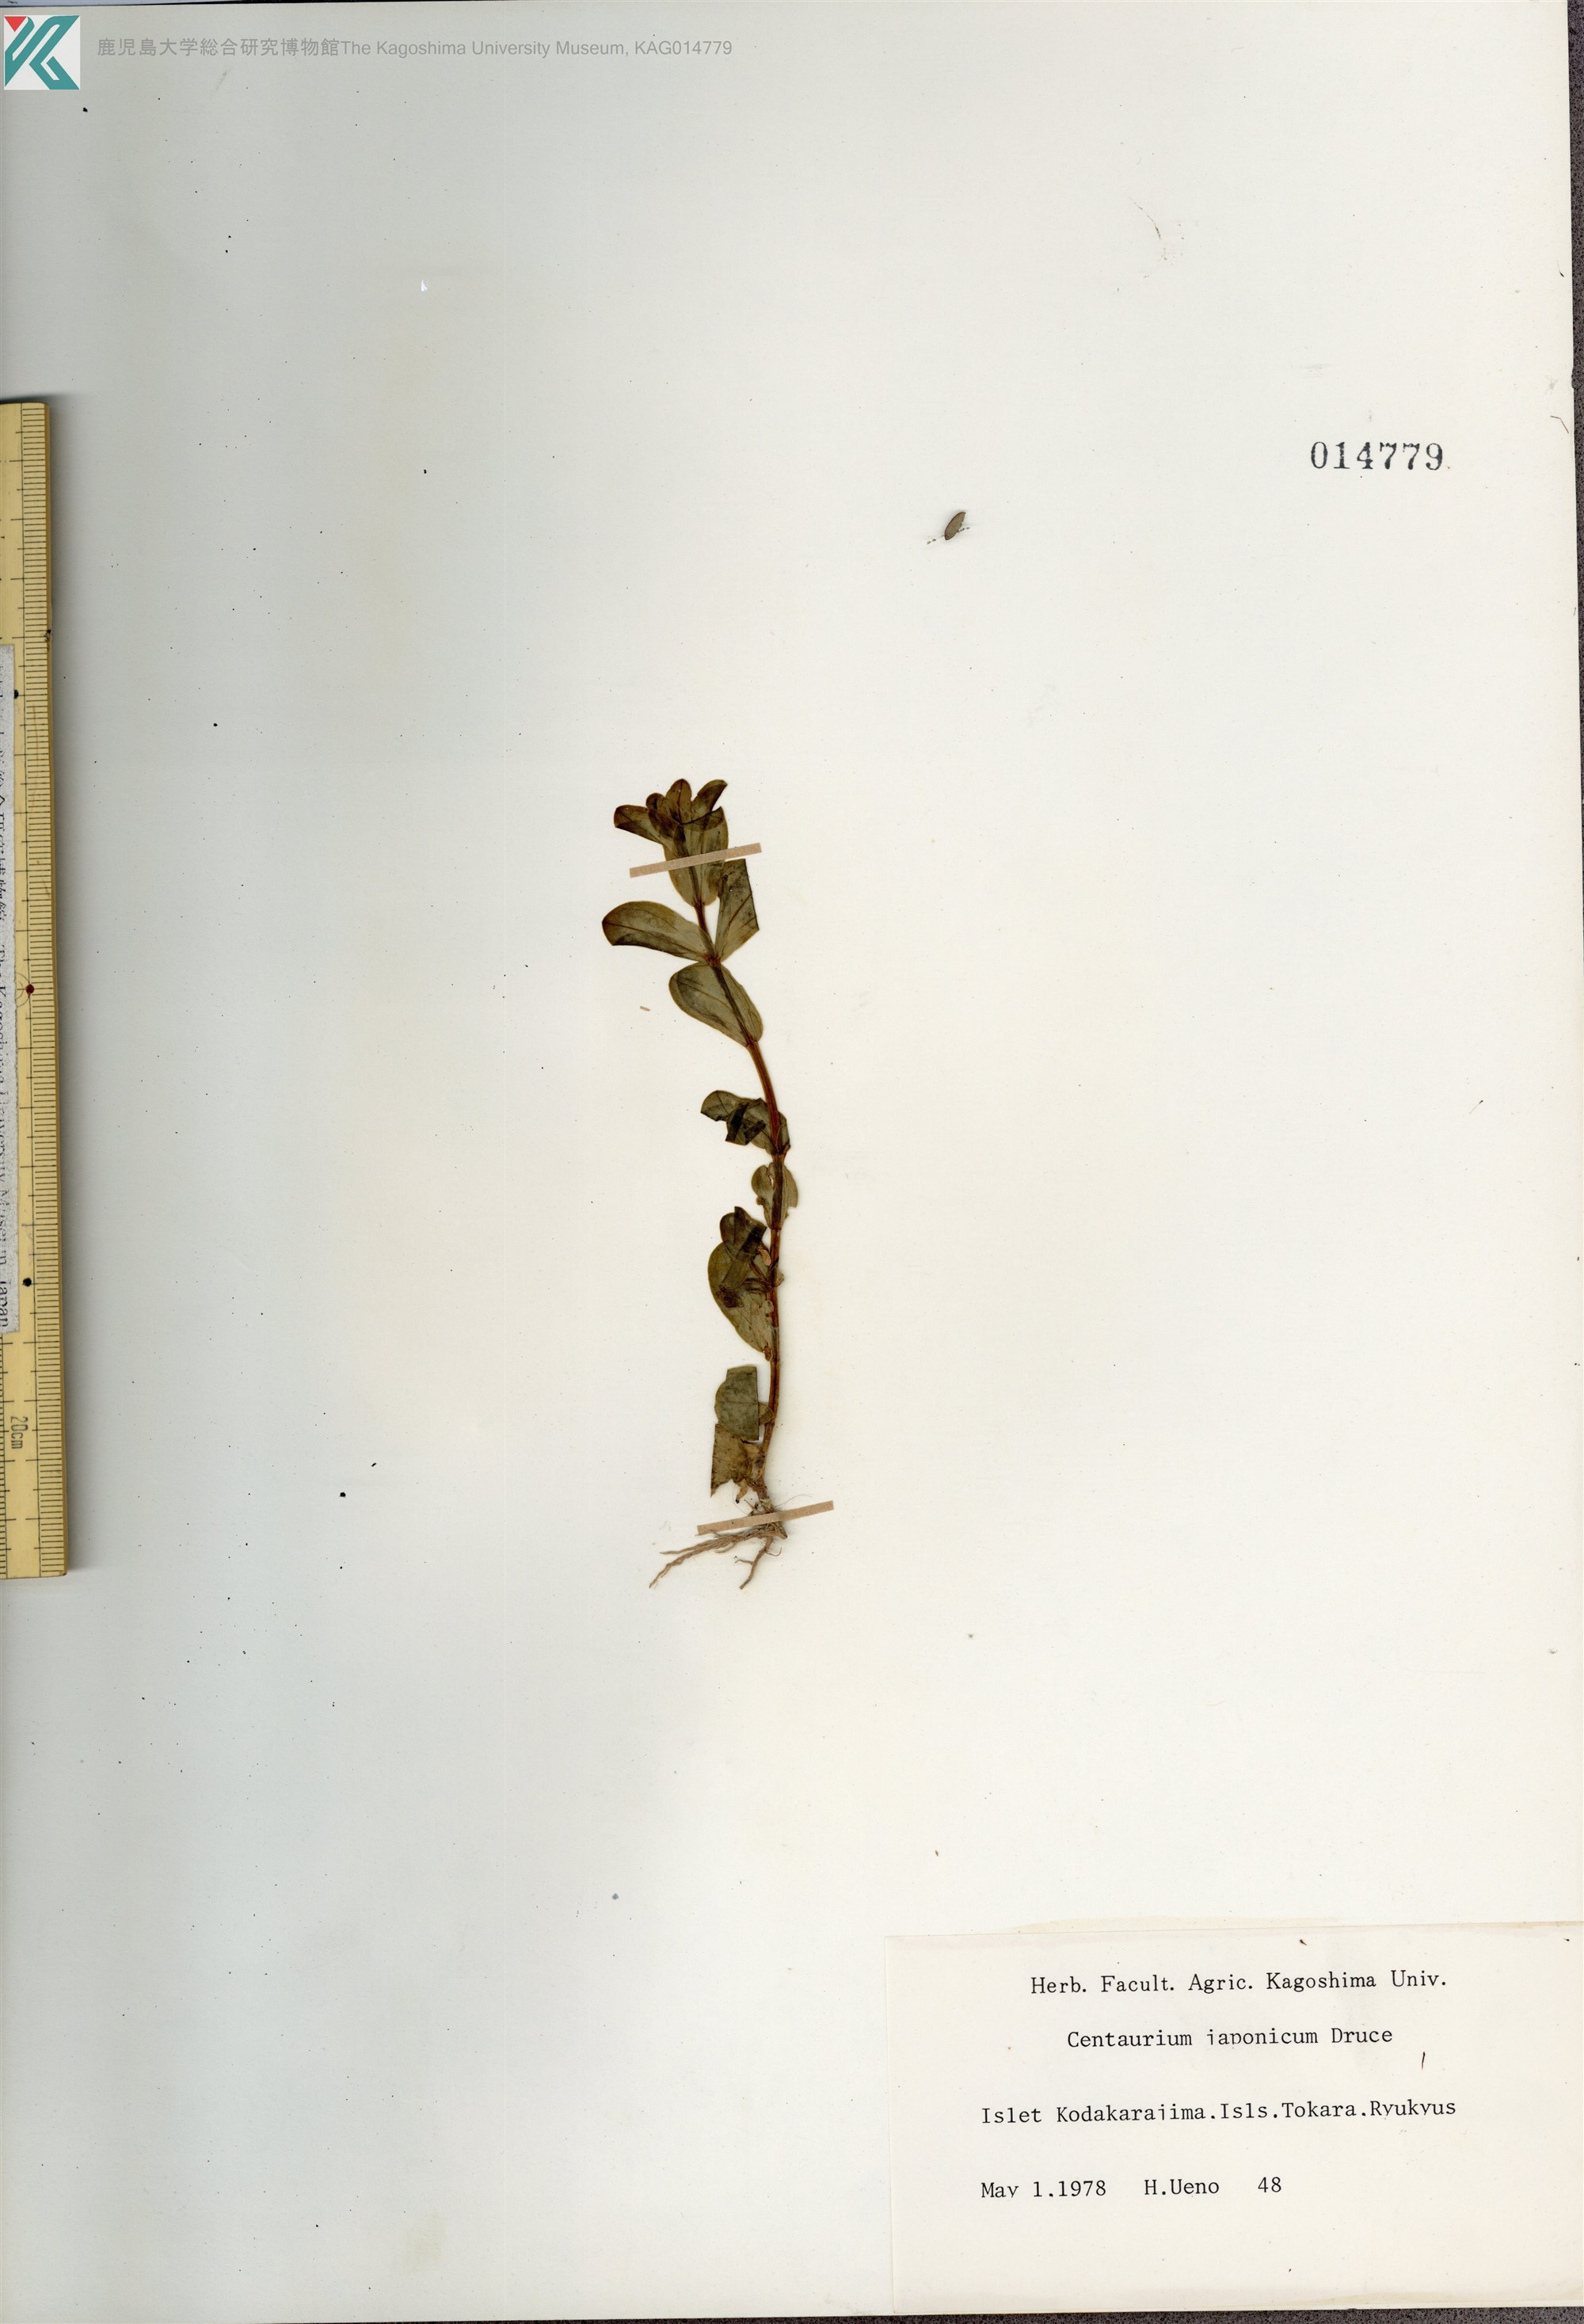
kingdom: Plantae
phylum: Tracheophyta
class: Magnoliopsida
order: Gentianales
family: Gentianaceae
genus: Schenkia
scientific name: Schenkia japonica
